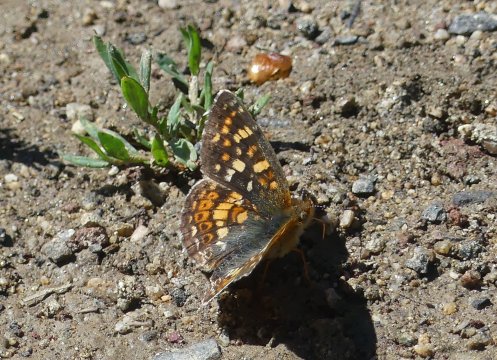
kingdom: Animalia
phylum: Arthropoda
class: Insecta
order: Lepidoptera
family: Nymphalidae
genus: Phyciodes
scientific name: Phyciodes tharos
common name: Field Crescent
